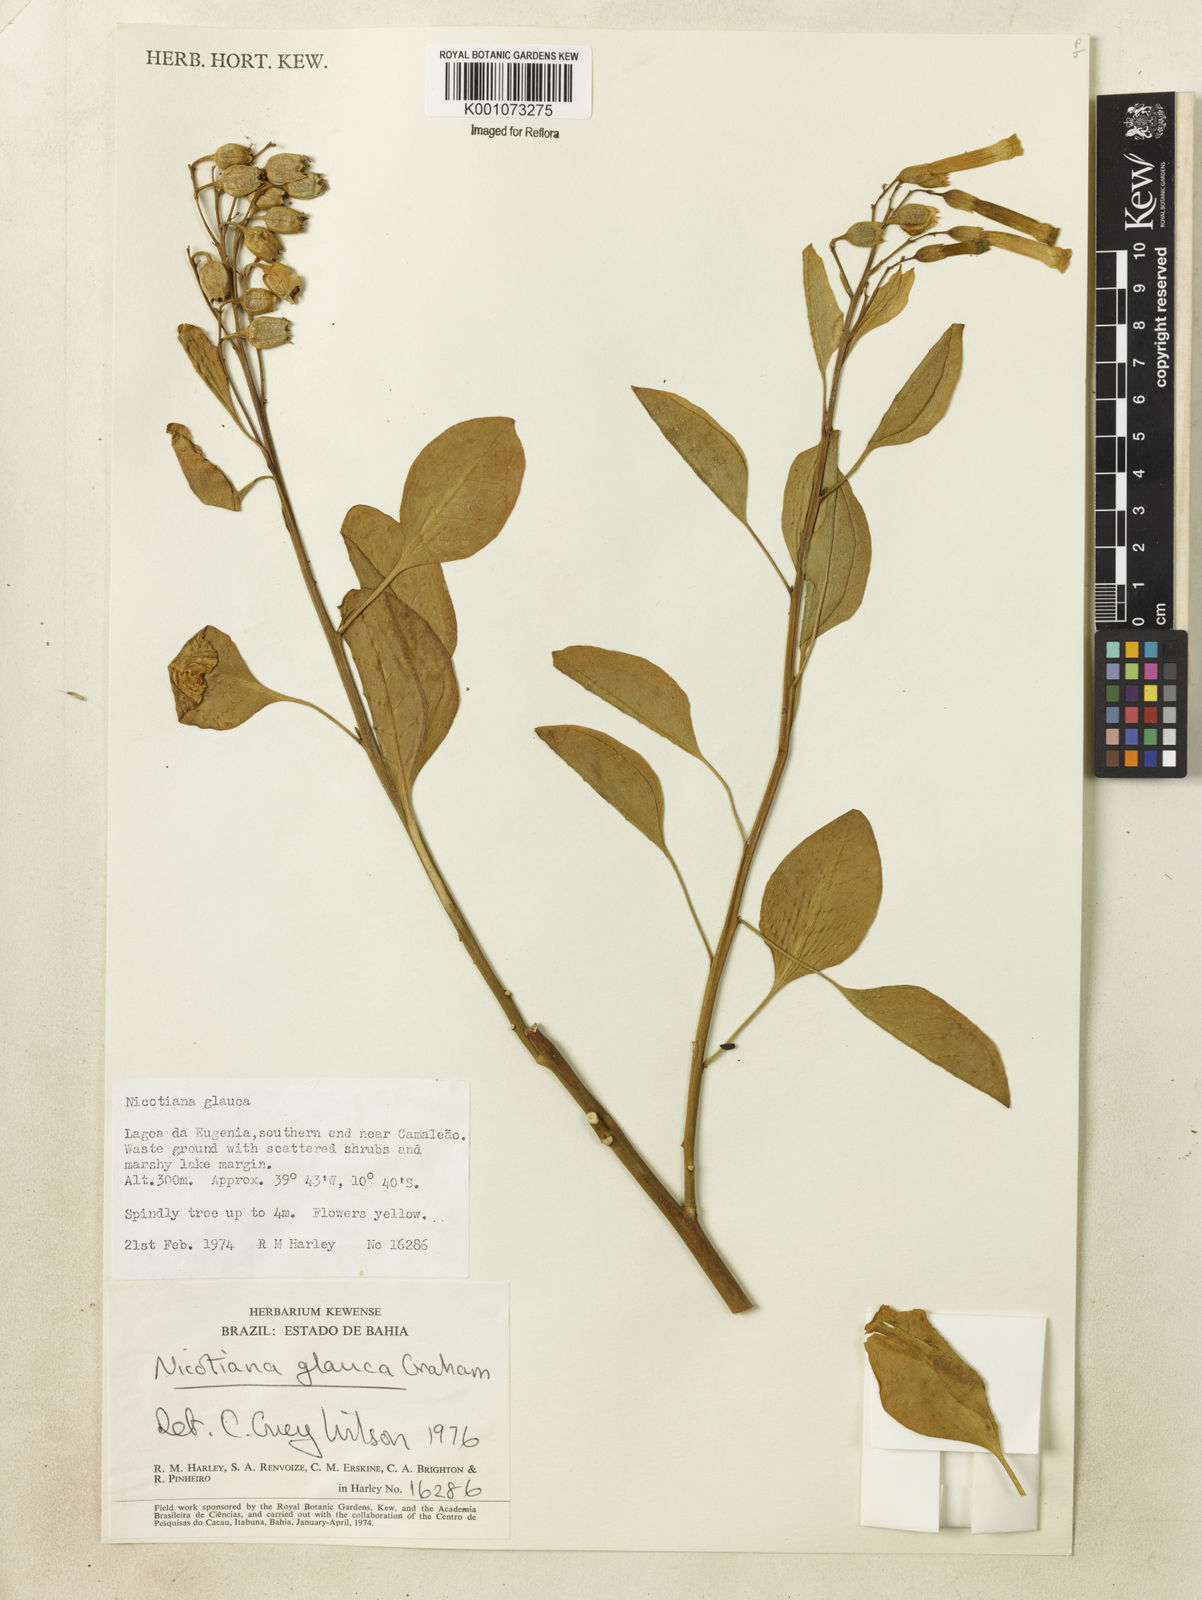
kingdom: Plantae
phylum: Tracheophyta
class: Magnoliopsida
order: Solanales
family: Solanaceae
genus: Nicotiana
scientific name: Nicotiana glauca
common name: Tree tobacco
